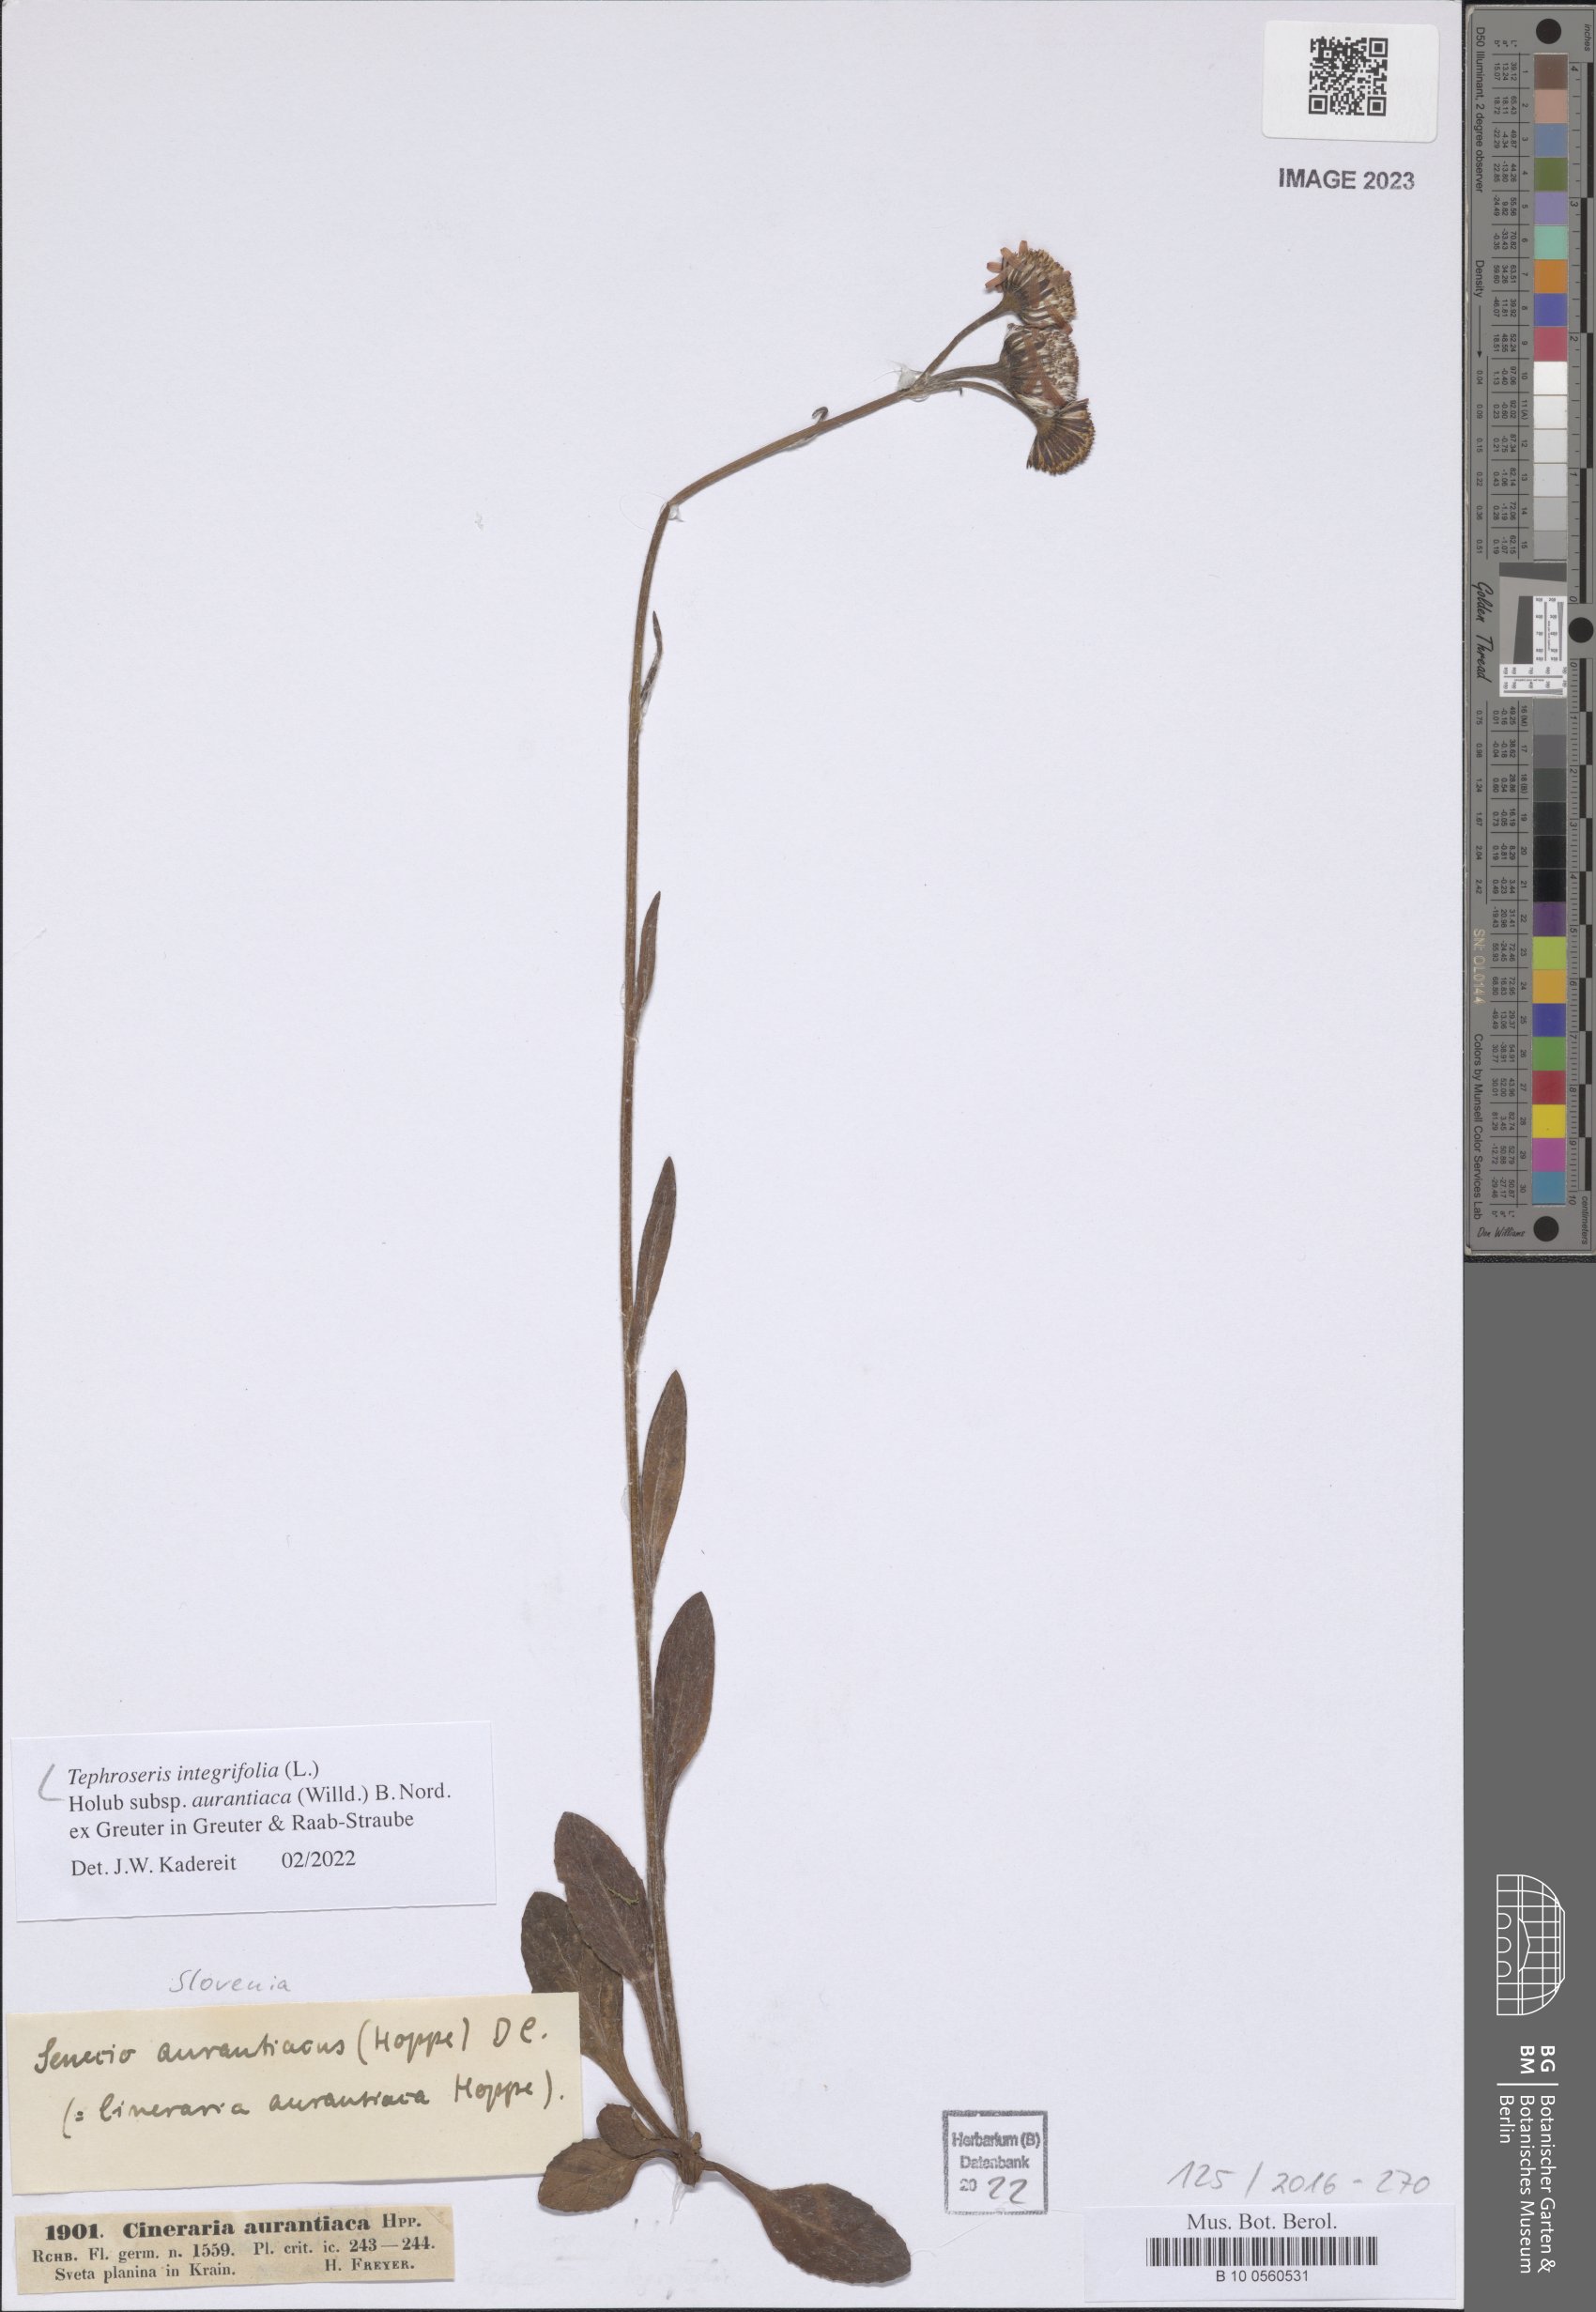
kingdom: Plantae
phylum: Tracheophyta
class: Magnoliopsida
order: Asterales
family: Asteraceae
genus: Tephroseris
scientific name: Tephroseris aurantiaca
